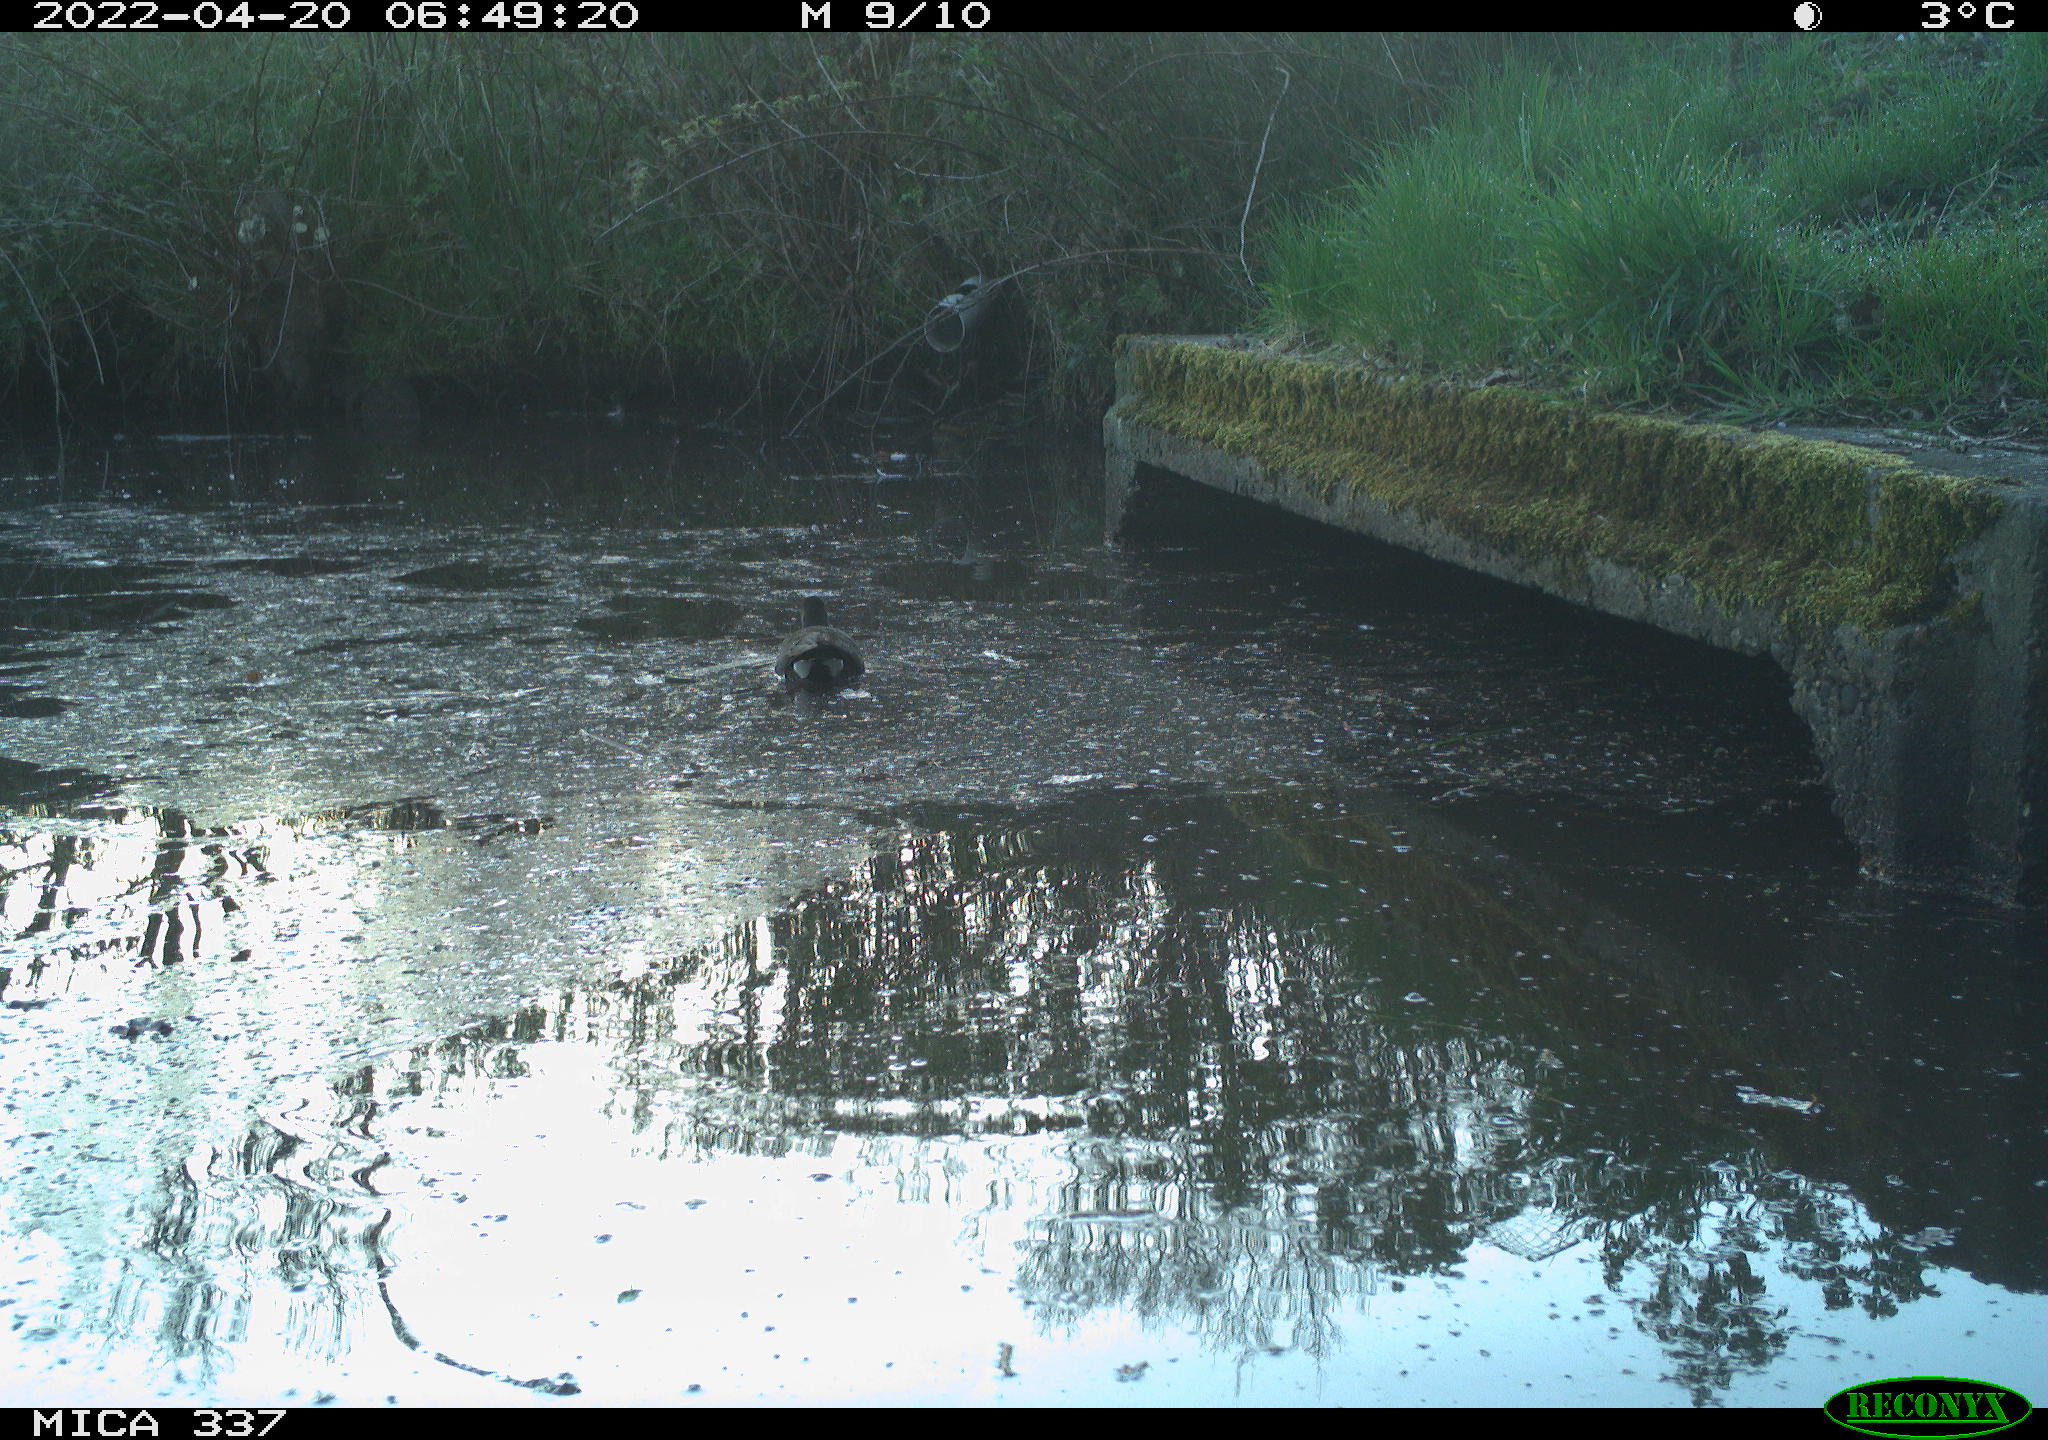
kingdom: Animalia
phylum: Chordata
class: Aves
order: Gruiformes
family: Rallidae
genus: Gallinula
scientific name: Gallinula chloropus
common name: Common moorhen
